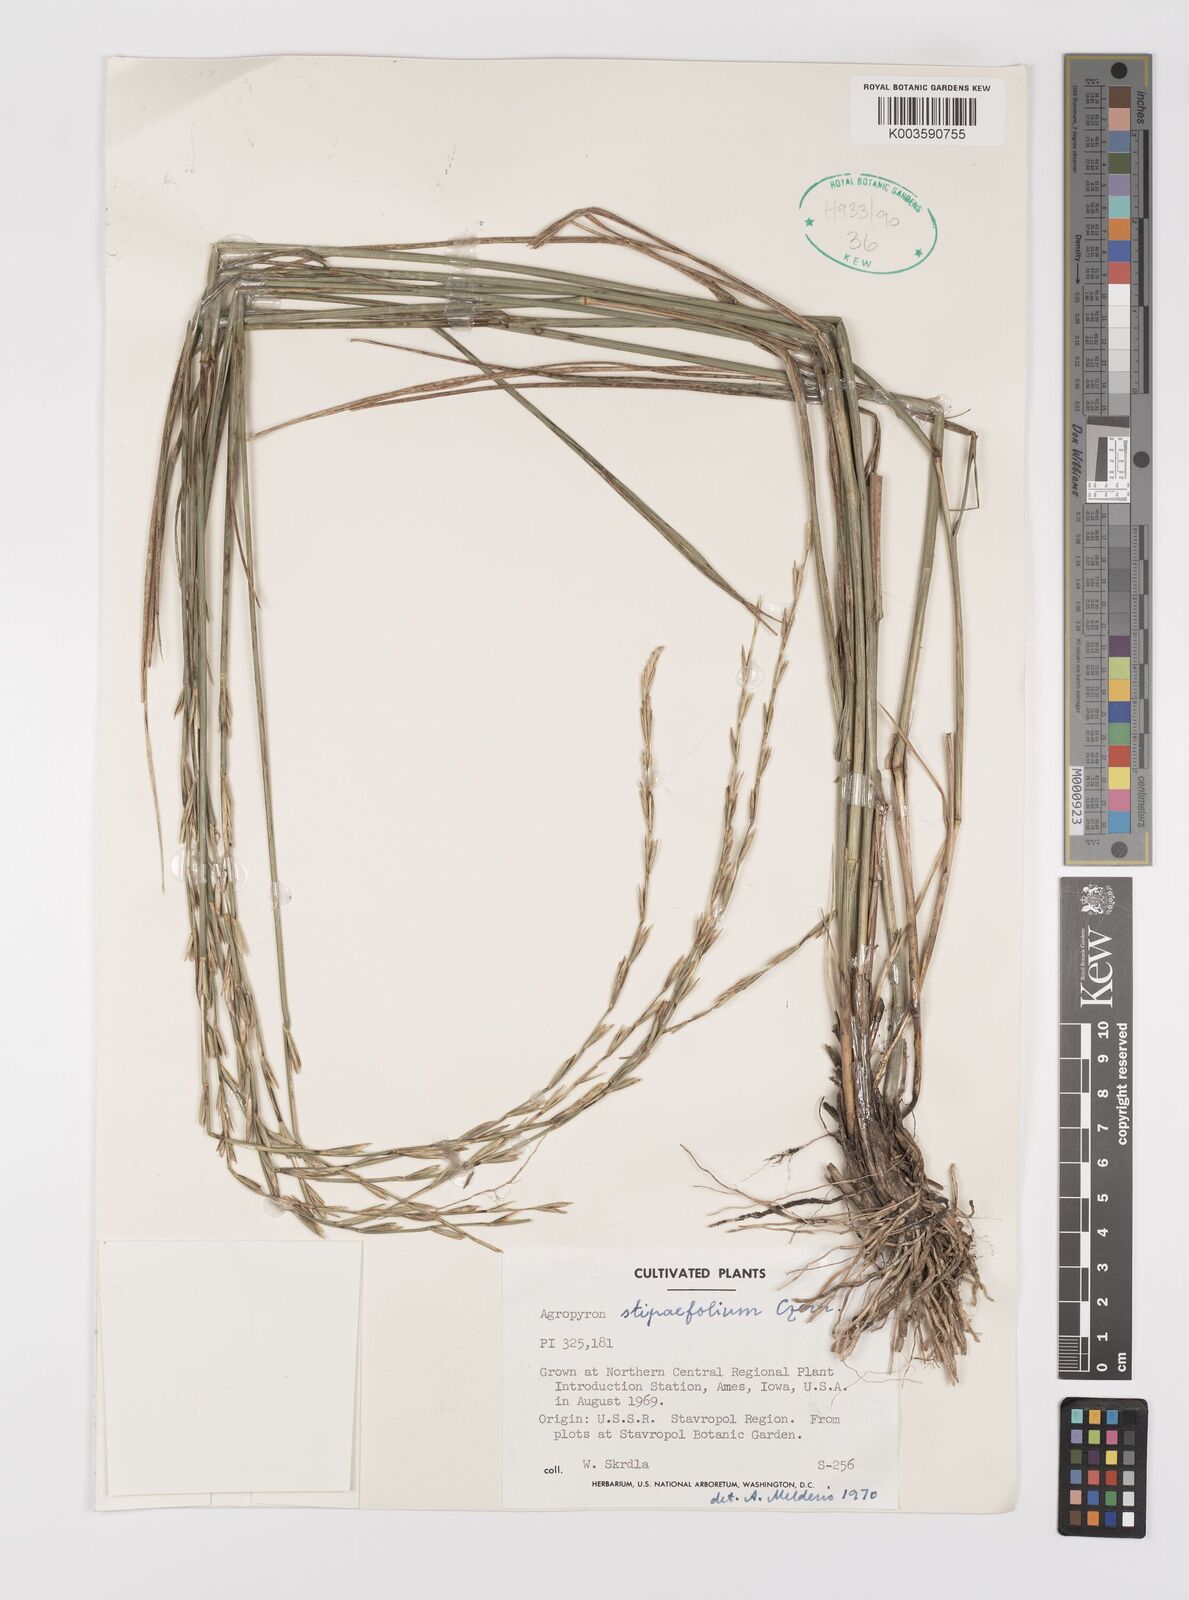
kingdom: Plantae
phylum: Tracheophyta
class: Liliopsida
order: Poales
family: Poaceae
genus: Pseudoroegneria
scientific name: Pseudoroegneria stipifolia
